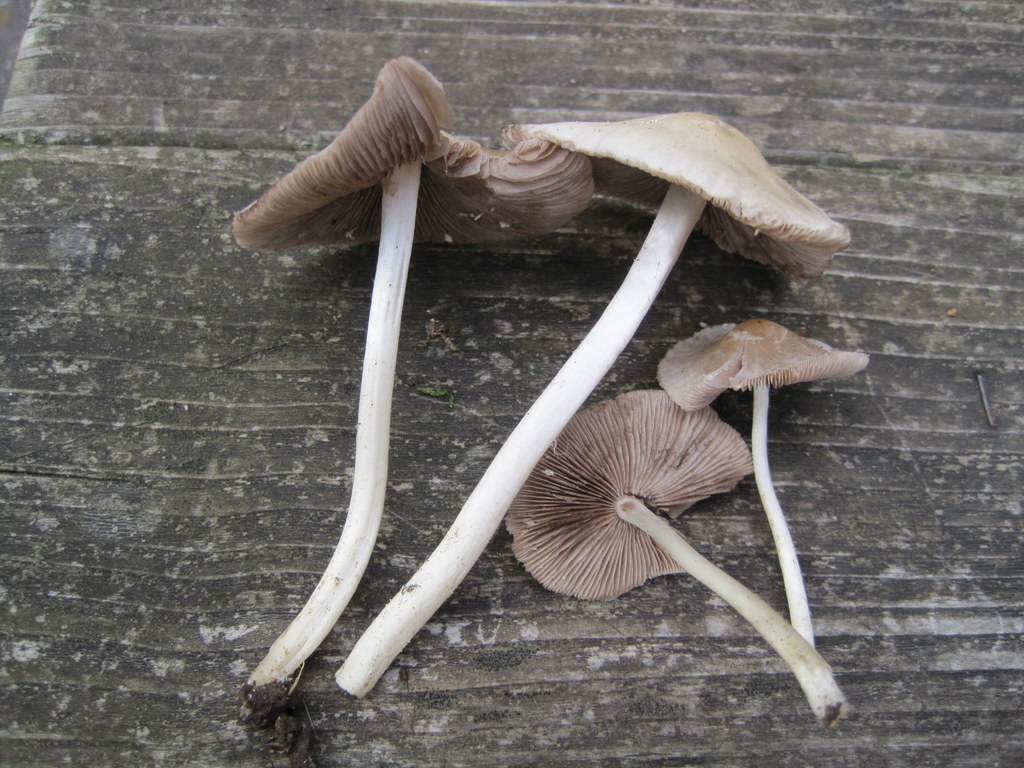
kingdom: Fungi
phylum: Basidiomycota
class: Agaricomycetes
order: Agaricales
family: Psathyrellaceae
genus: Candolleomyces
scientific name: Candolleomyces candolleanus
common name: Candolles mørkhat
